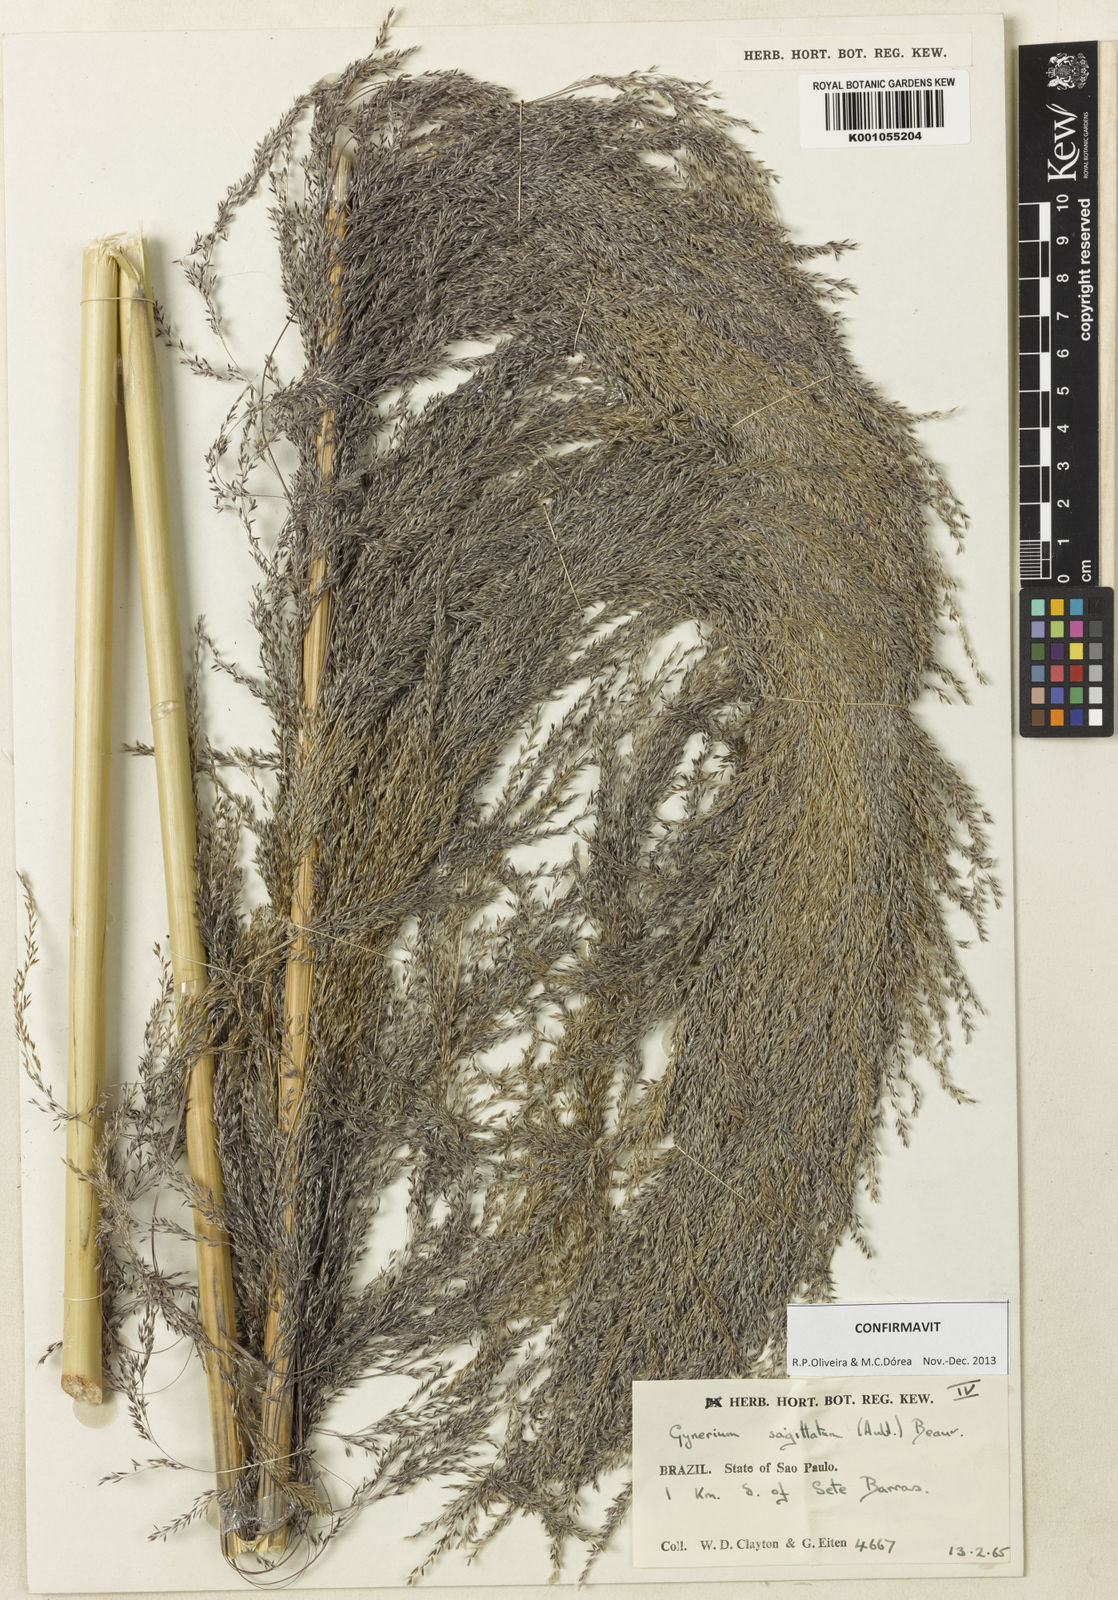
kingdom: Plantae
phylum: Tracheophyta
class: Liliopsida
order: Poales
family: Poaceae
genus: Gynerium
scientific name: Gynerium sagittatum
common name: Wild cane
